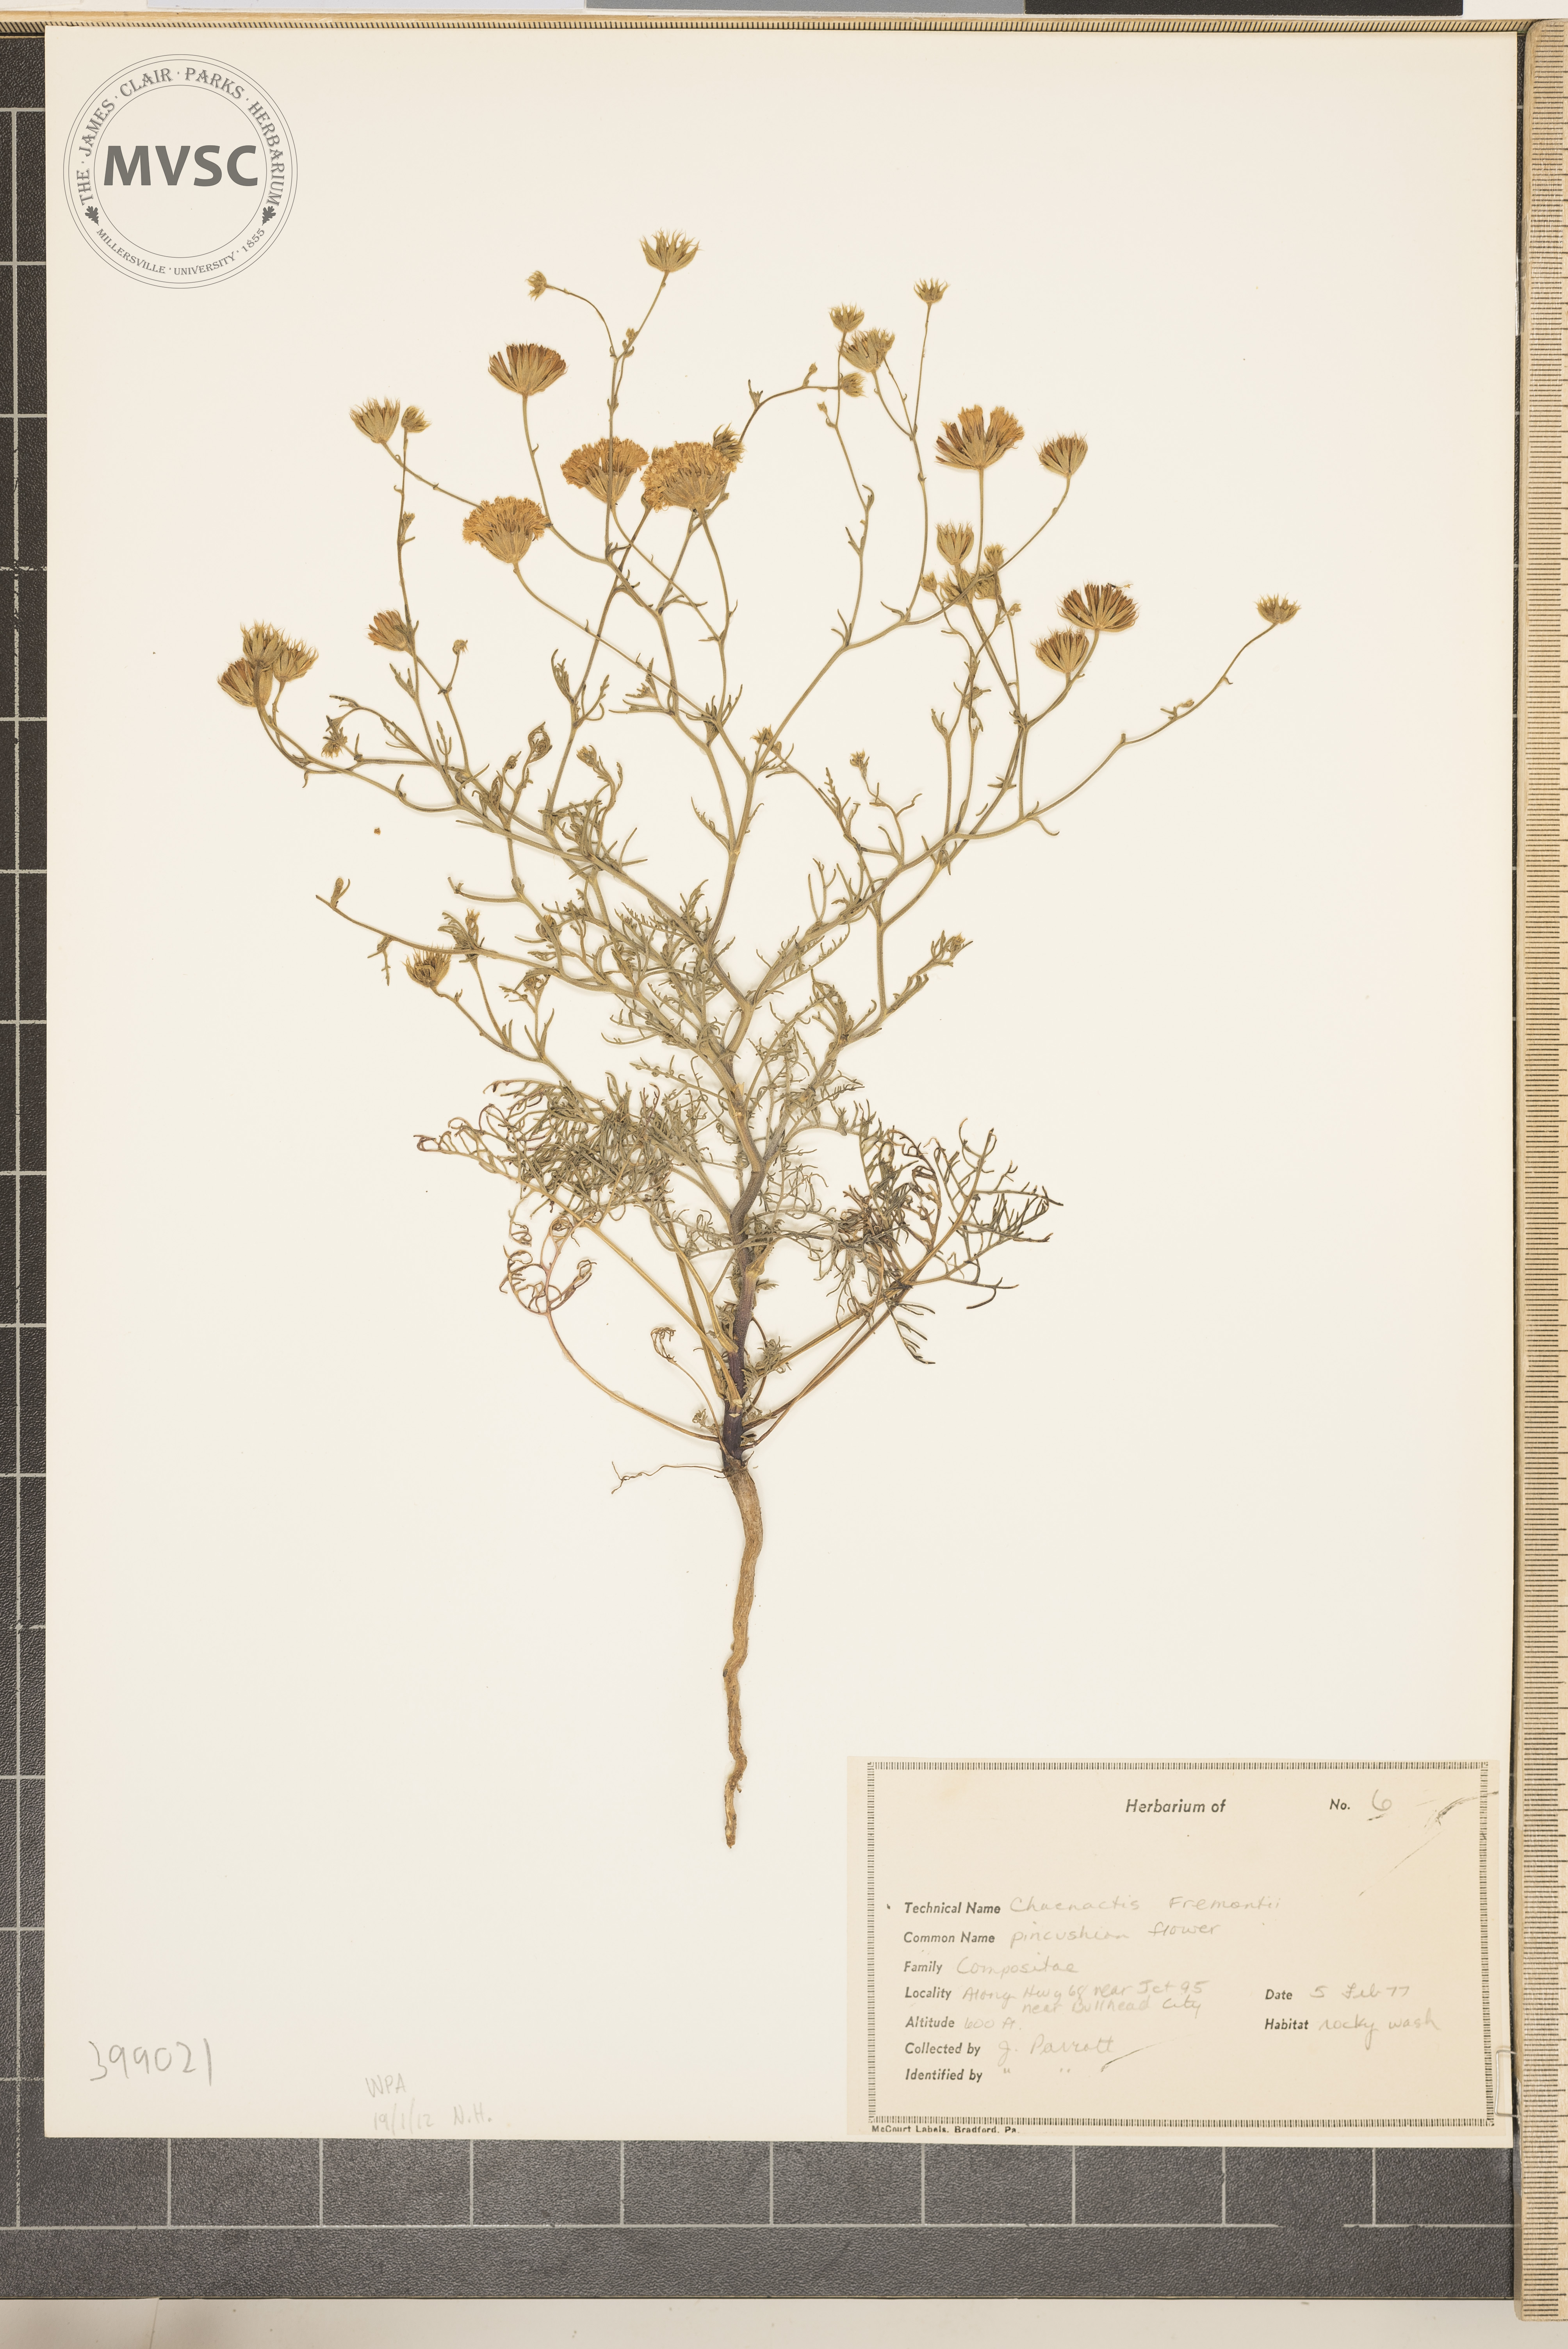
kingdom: Plantae
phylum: Tracheophyta
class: Magnoliopsida
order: Asterales
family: Asteraceae
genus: Chaenactis
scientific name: Chaenactis fremontii
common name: Redbud
